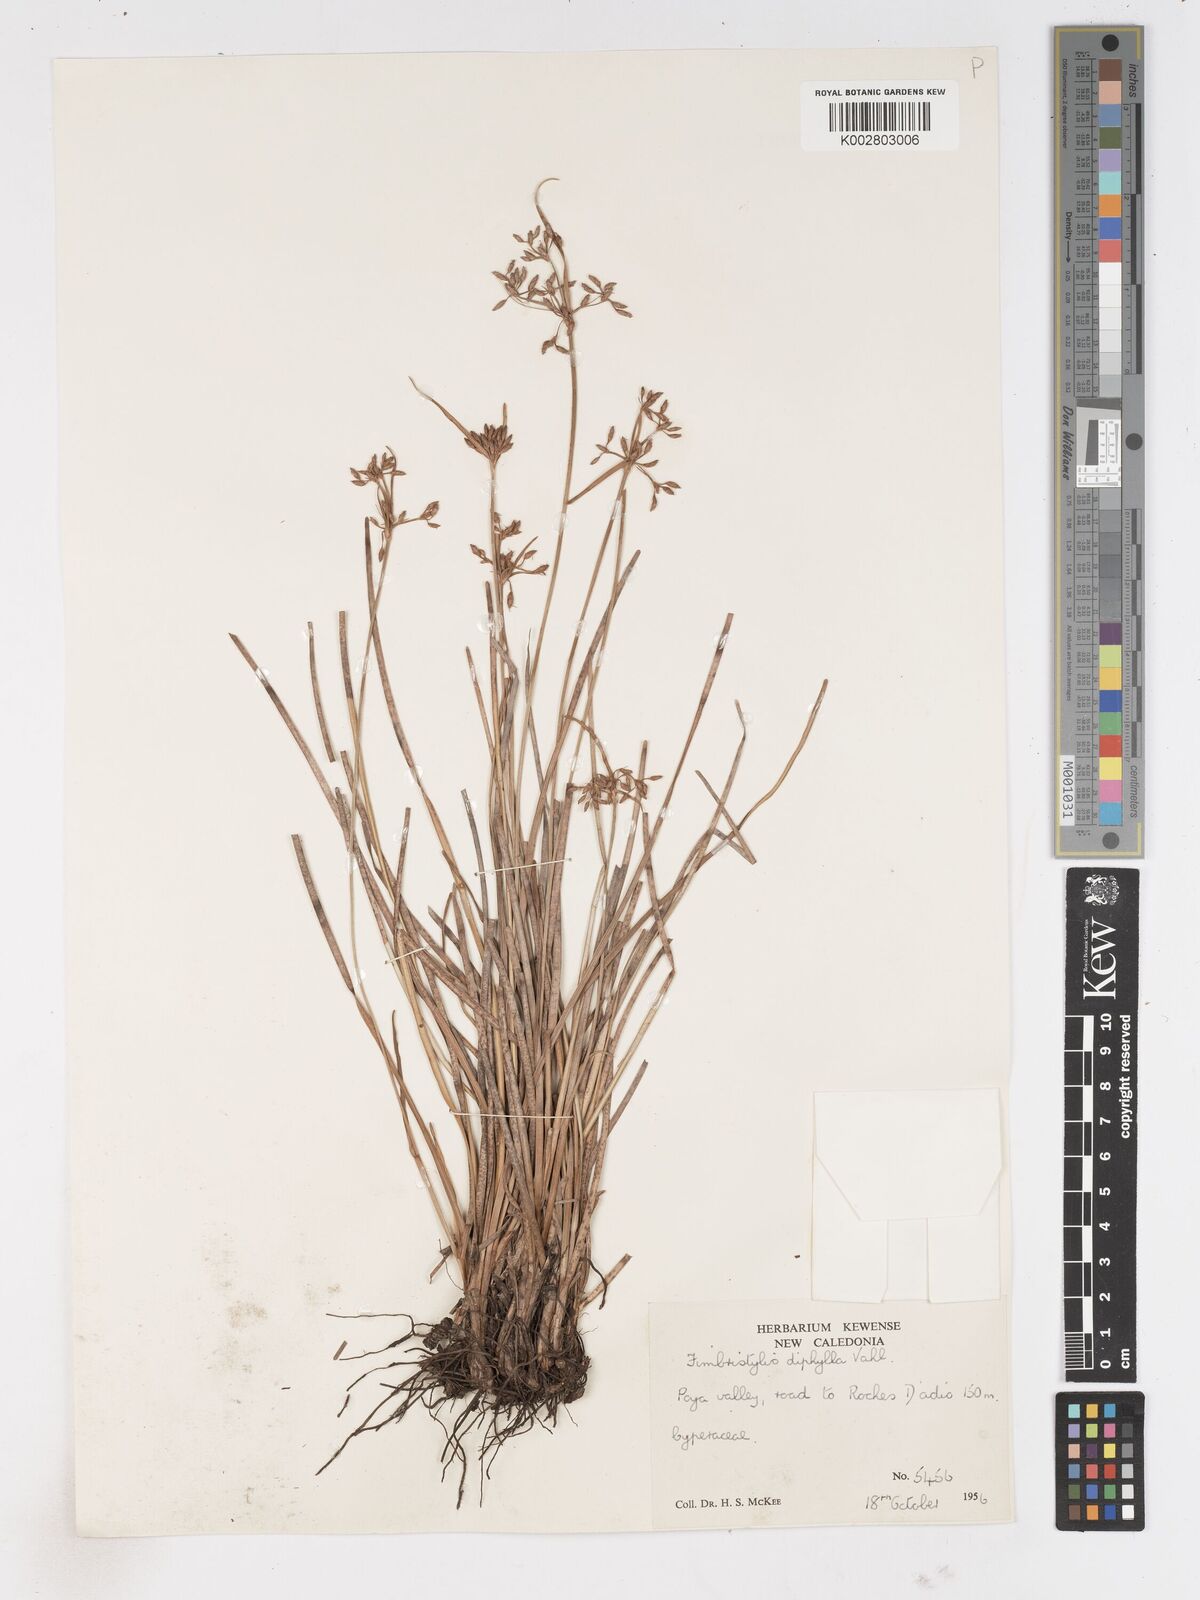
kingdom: Plantae
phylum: Tracheophyta
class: Liliopsida
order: Poales
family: Cyperaceae
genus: Fimbristylis
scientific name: Fimbristylis dichotoma
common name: Forked fimbry
